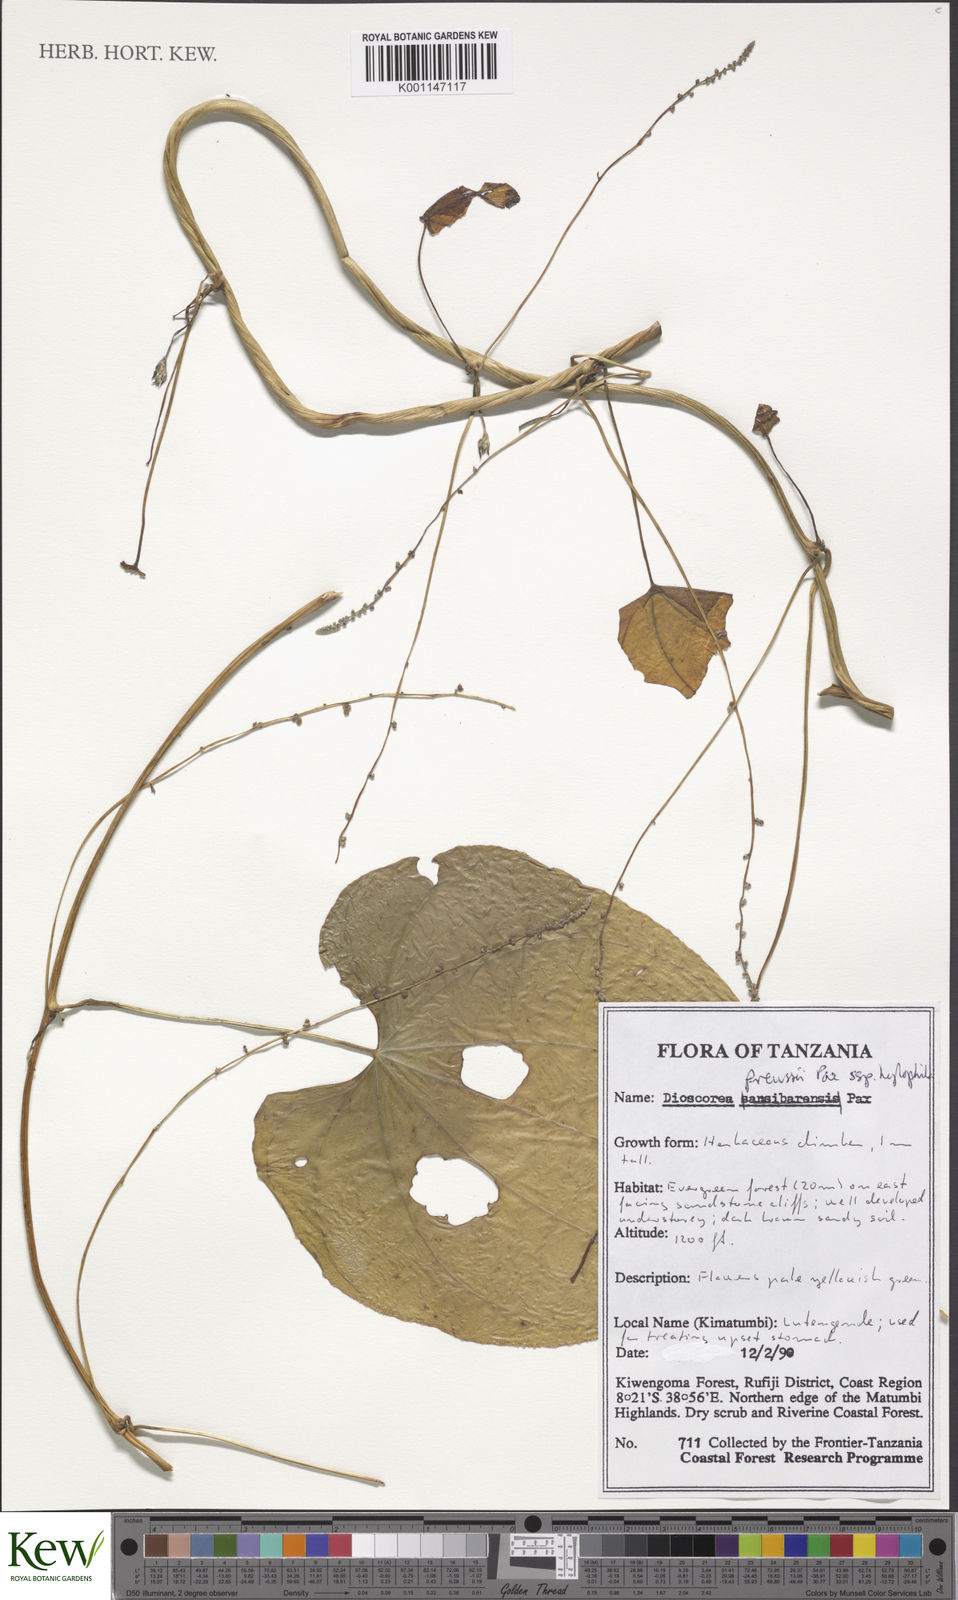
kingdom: Plantae
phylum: Tracheophyta
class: Liliopsida
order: Dioscoreales
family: Dioscoreaceae
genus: Dioscorea
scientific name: Dioscorea preussii
